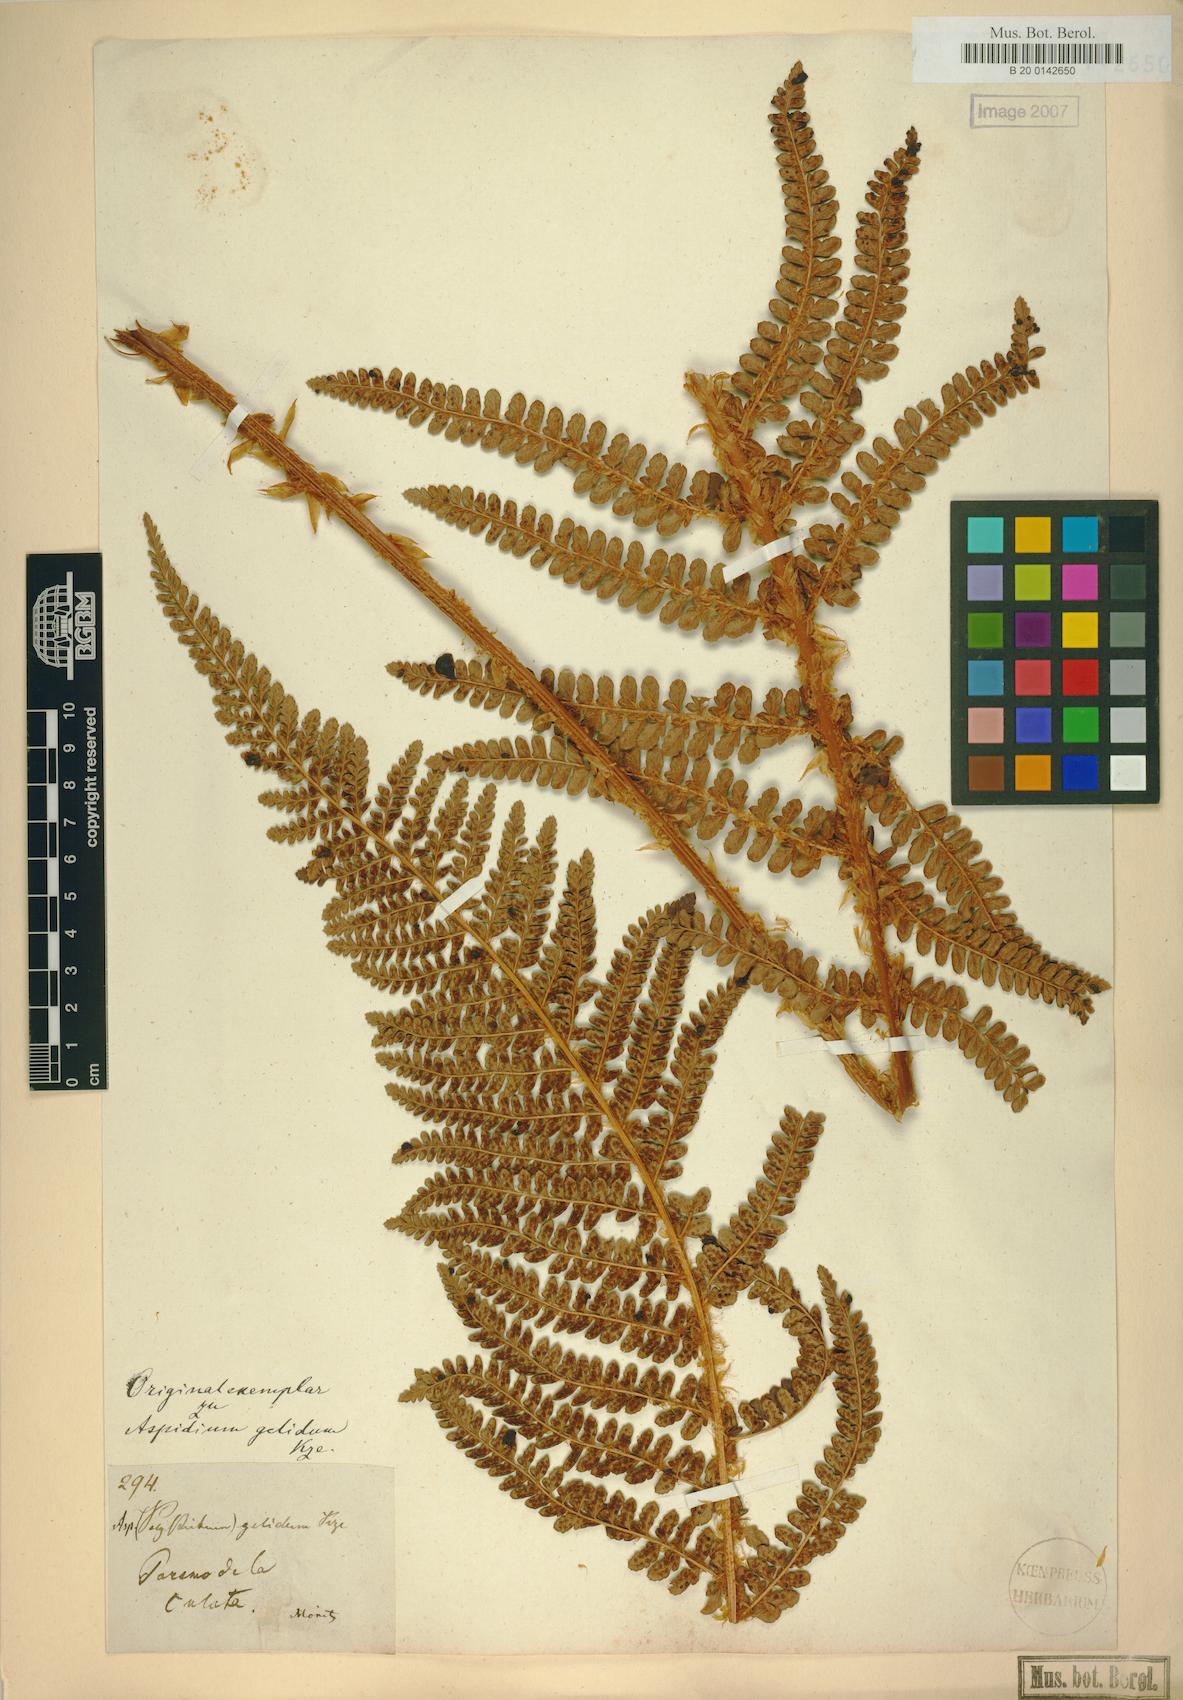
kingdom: Plantae
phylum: Tracheophyta
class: Polypodiopsida
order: Polypodiales
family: Dryopteridaceae
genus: Polystichum
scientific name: Polystichum pycnolepis
